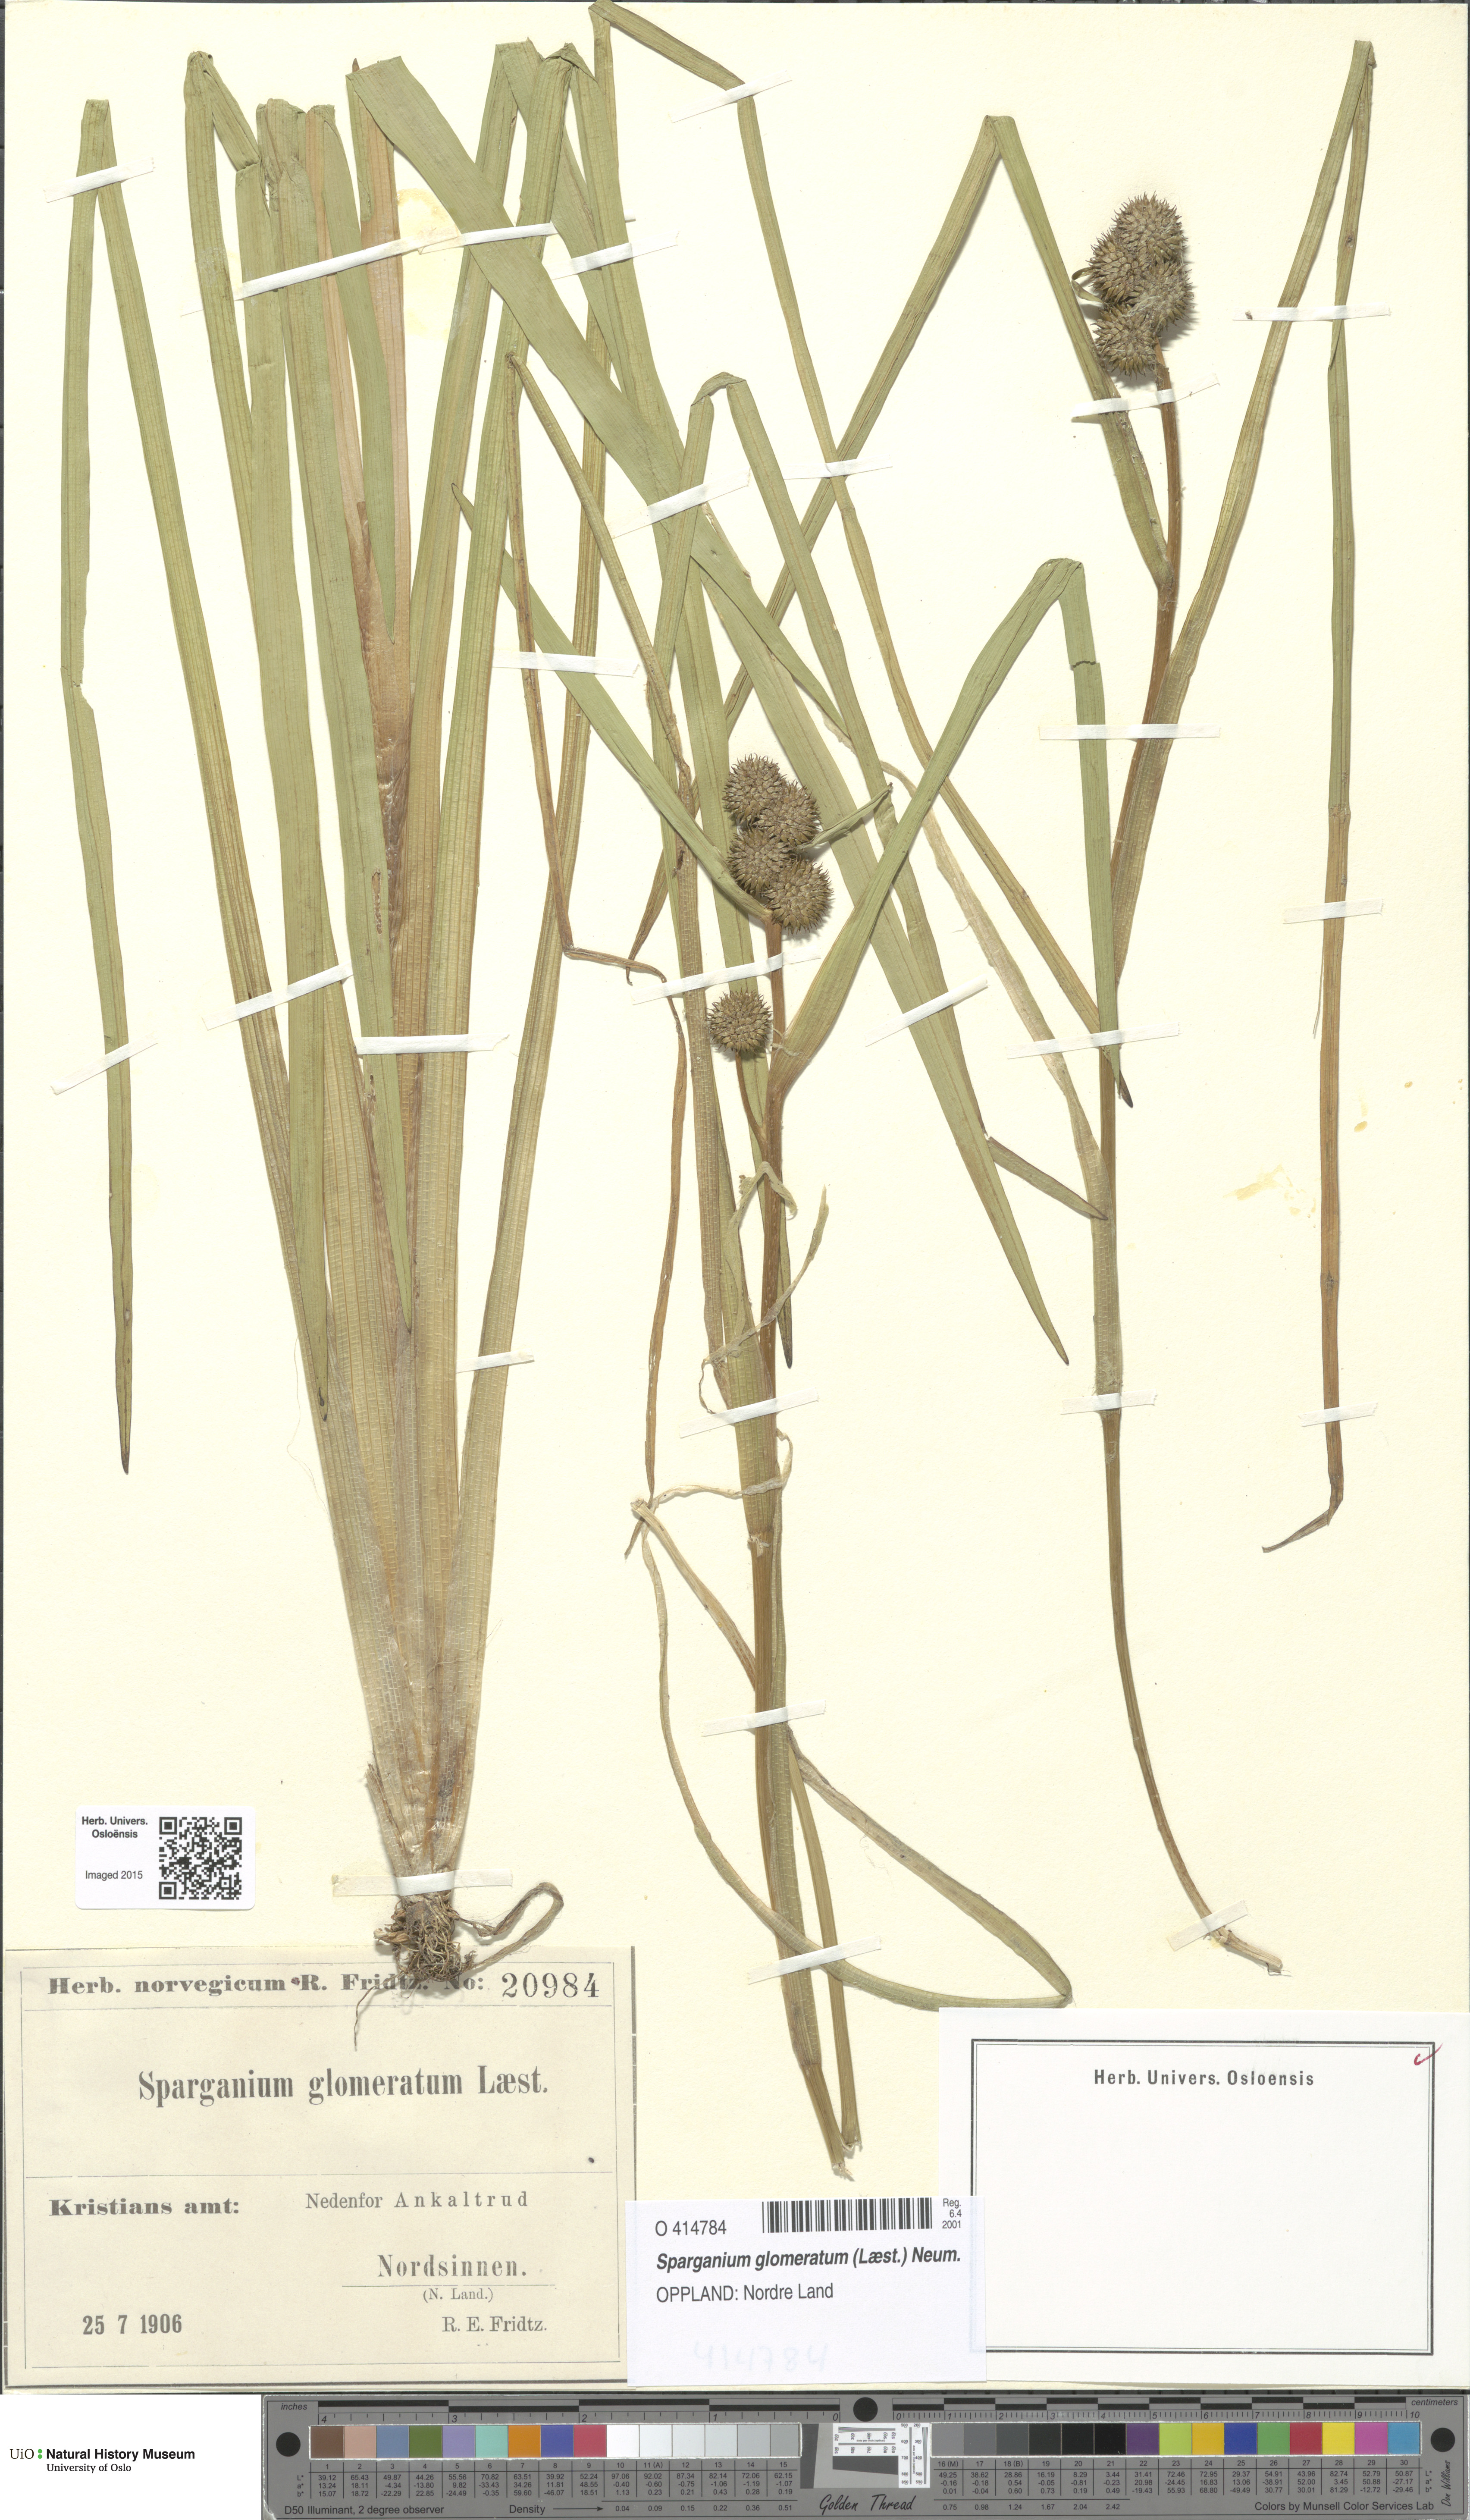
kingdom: Plantae
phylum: Tracheophyta
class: Liliopsida
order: Poales
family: Typhaceae
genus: Sparganium
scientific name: Sparganium glomeratum
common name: Clustered burreed
